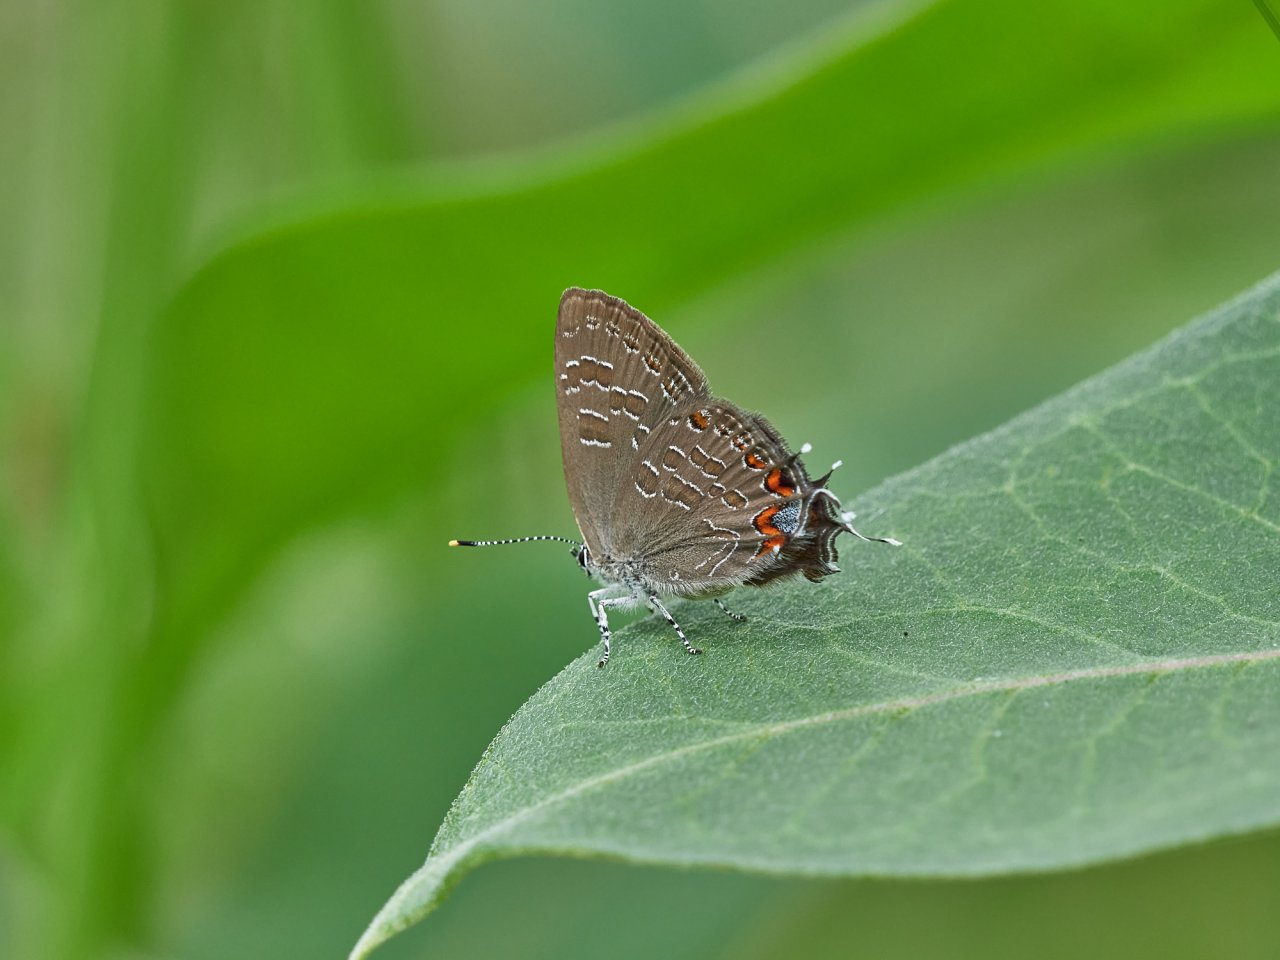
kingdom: Animalia
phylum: Arthropoda
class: Insecta
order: Lepidoptera
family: Lycaenidae
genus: Satyrium
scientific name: Satyrium liparops
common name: Striped Hairstreak
